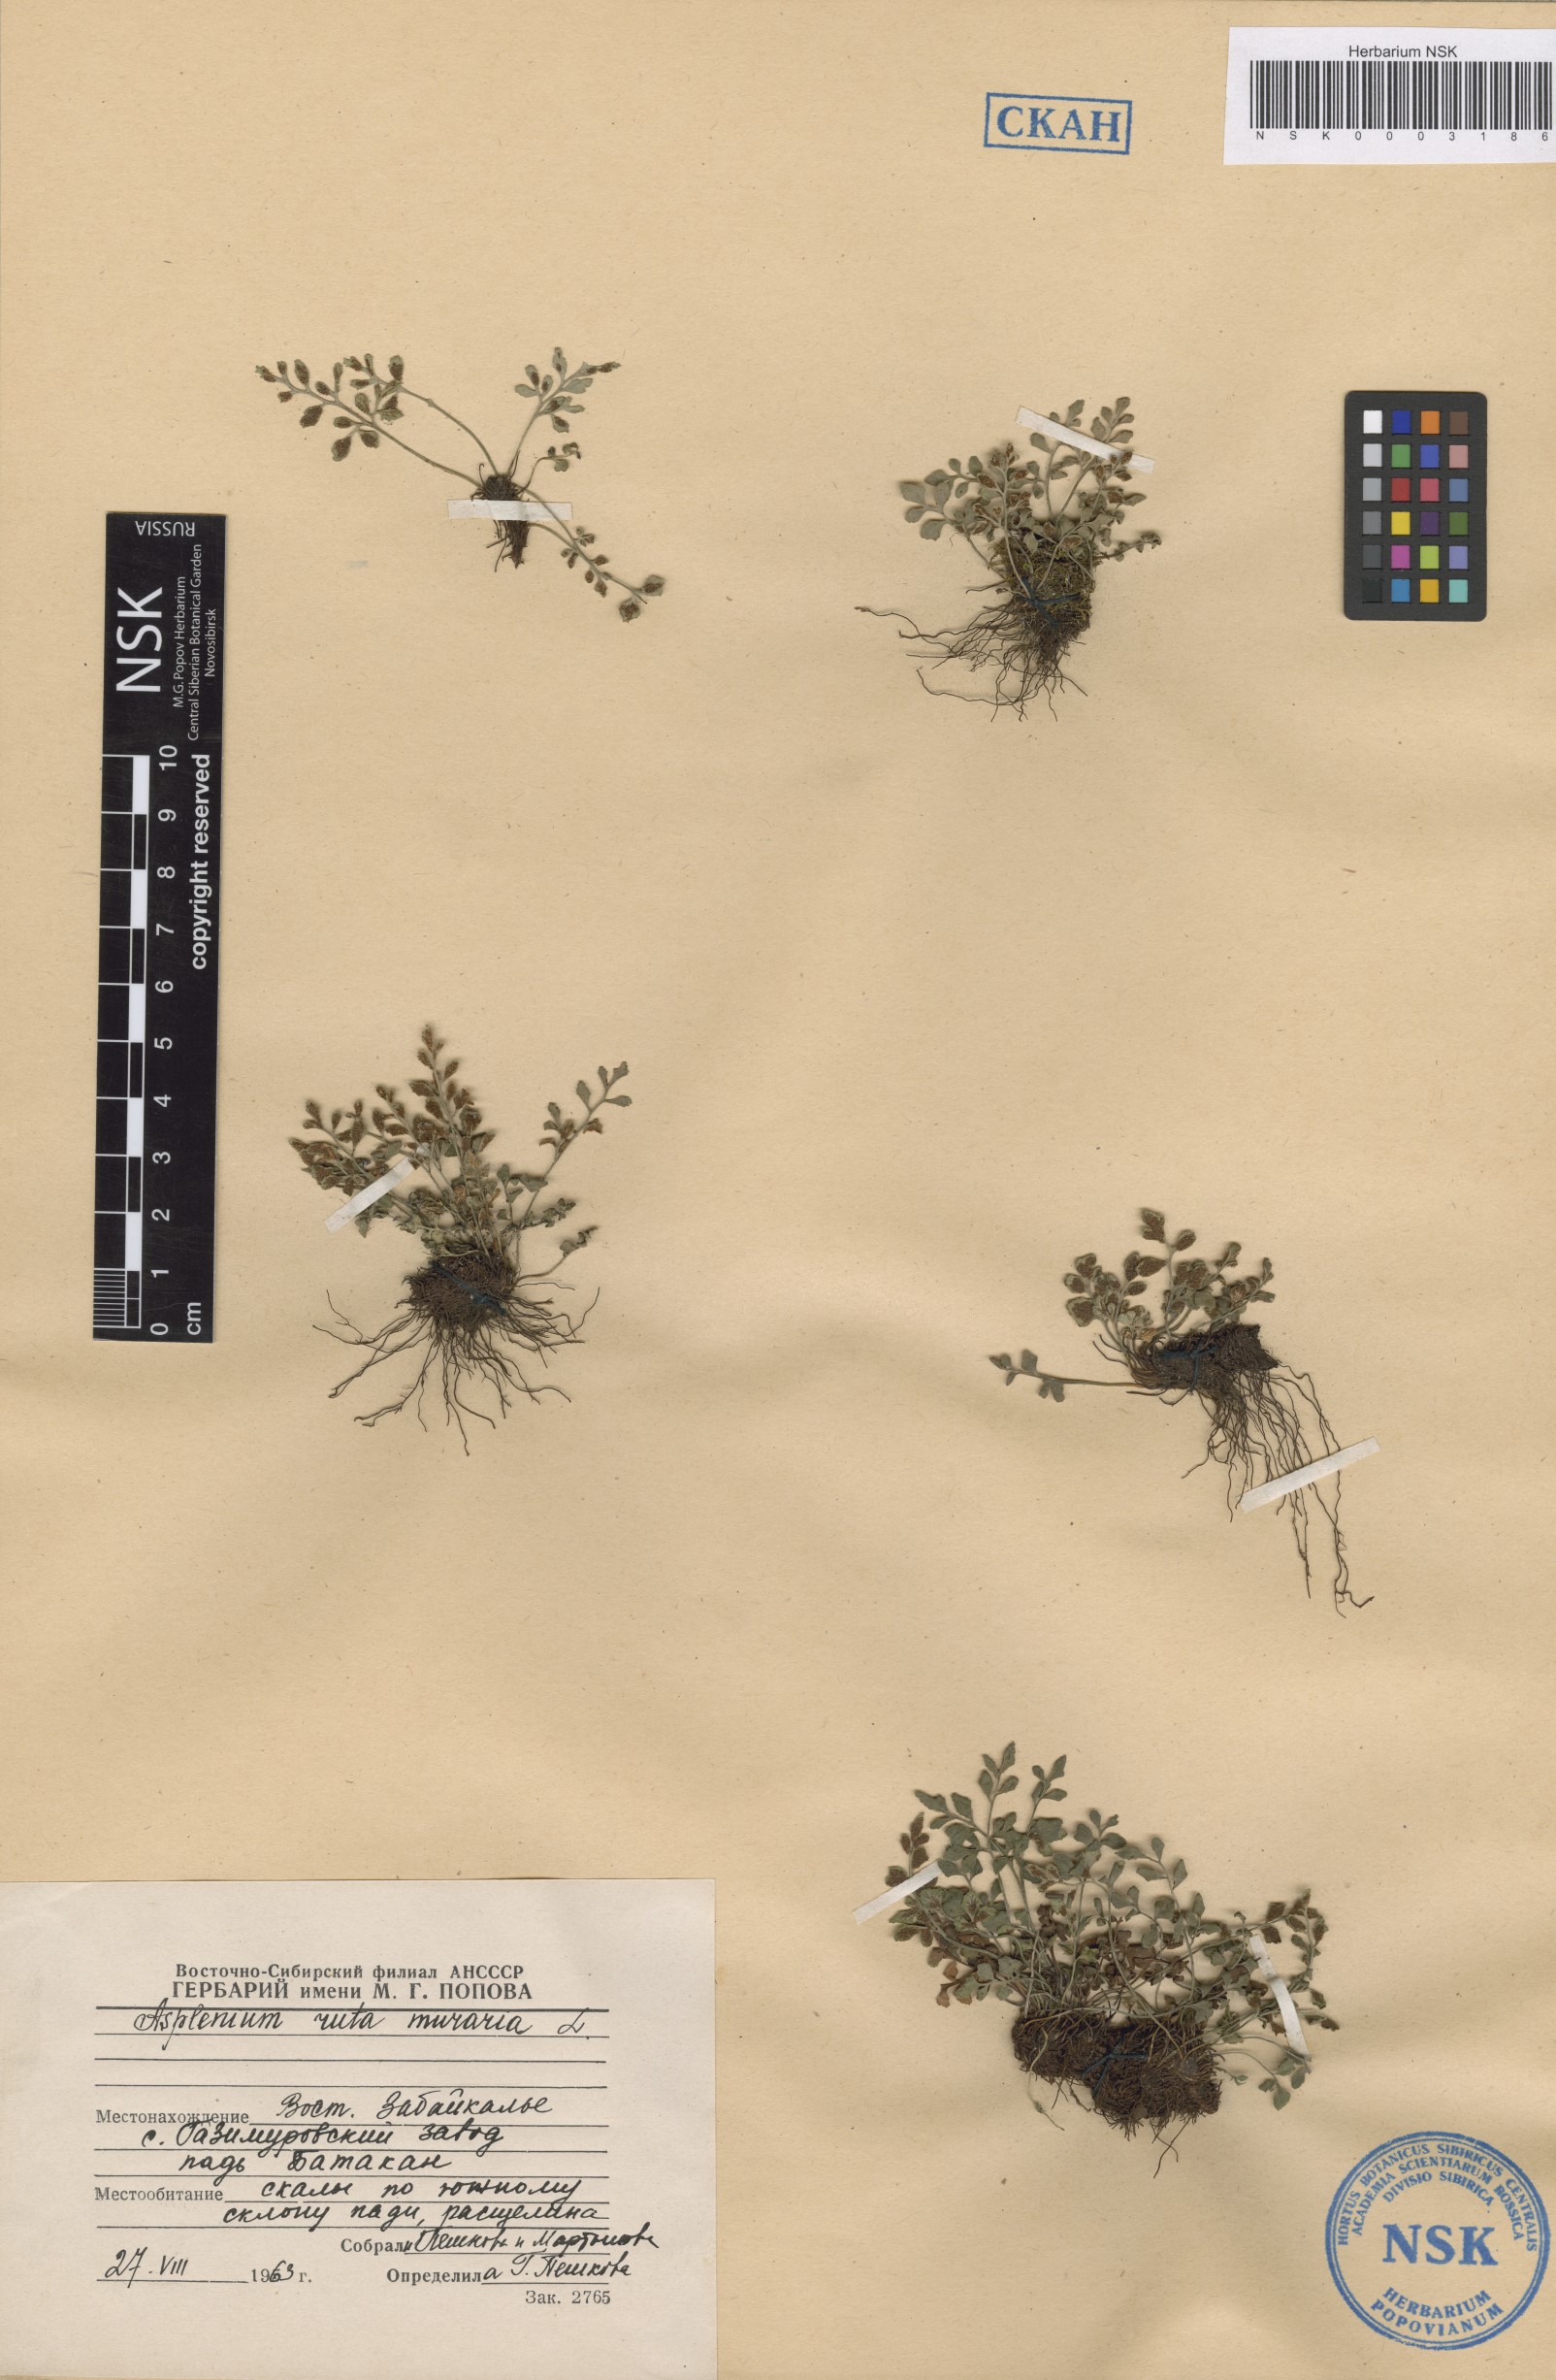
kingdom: Plantae
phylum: Tracheophyta
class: Polypodiopsida
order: Polypodiales
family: Aspleniaceae
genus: Asplenium
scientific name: Asplenium ruta-muraria
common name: Wall-rue
